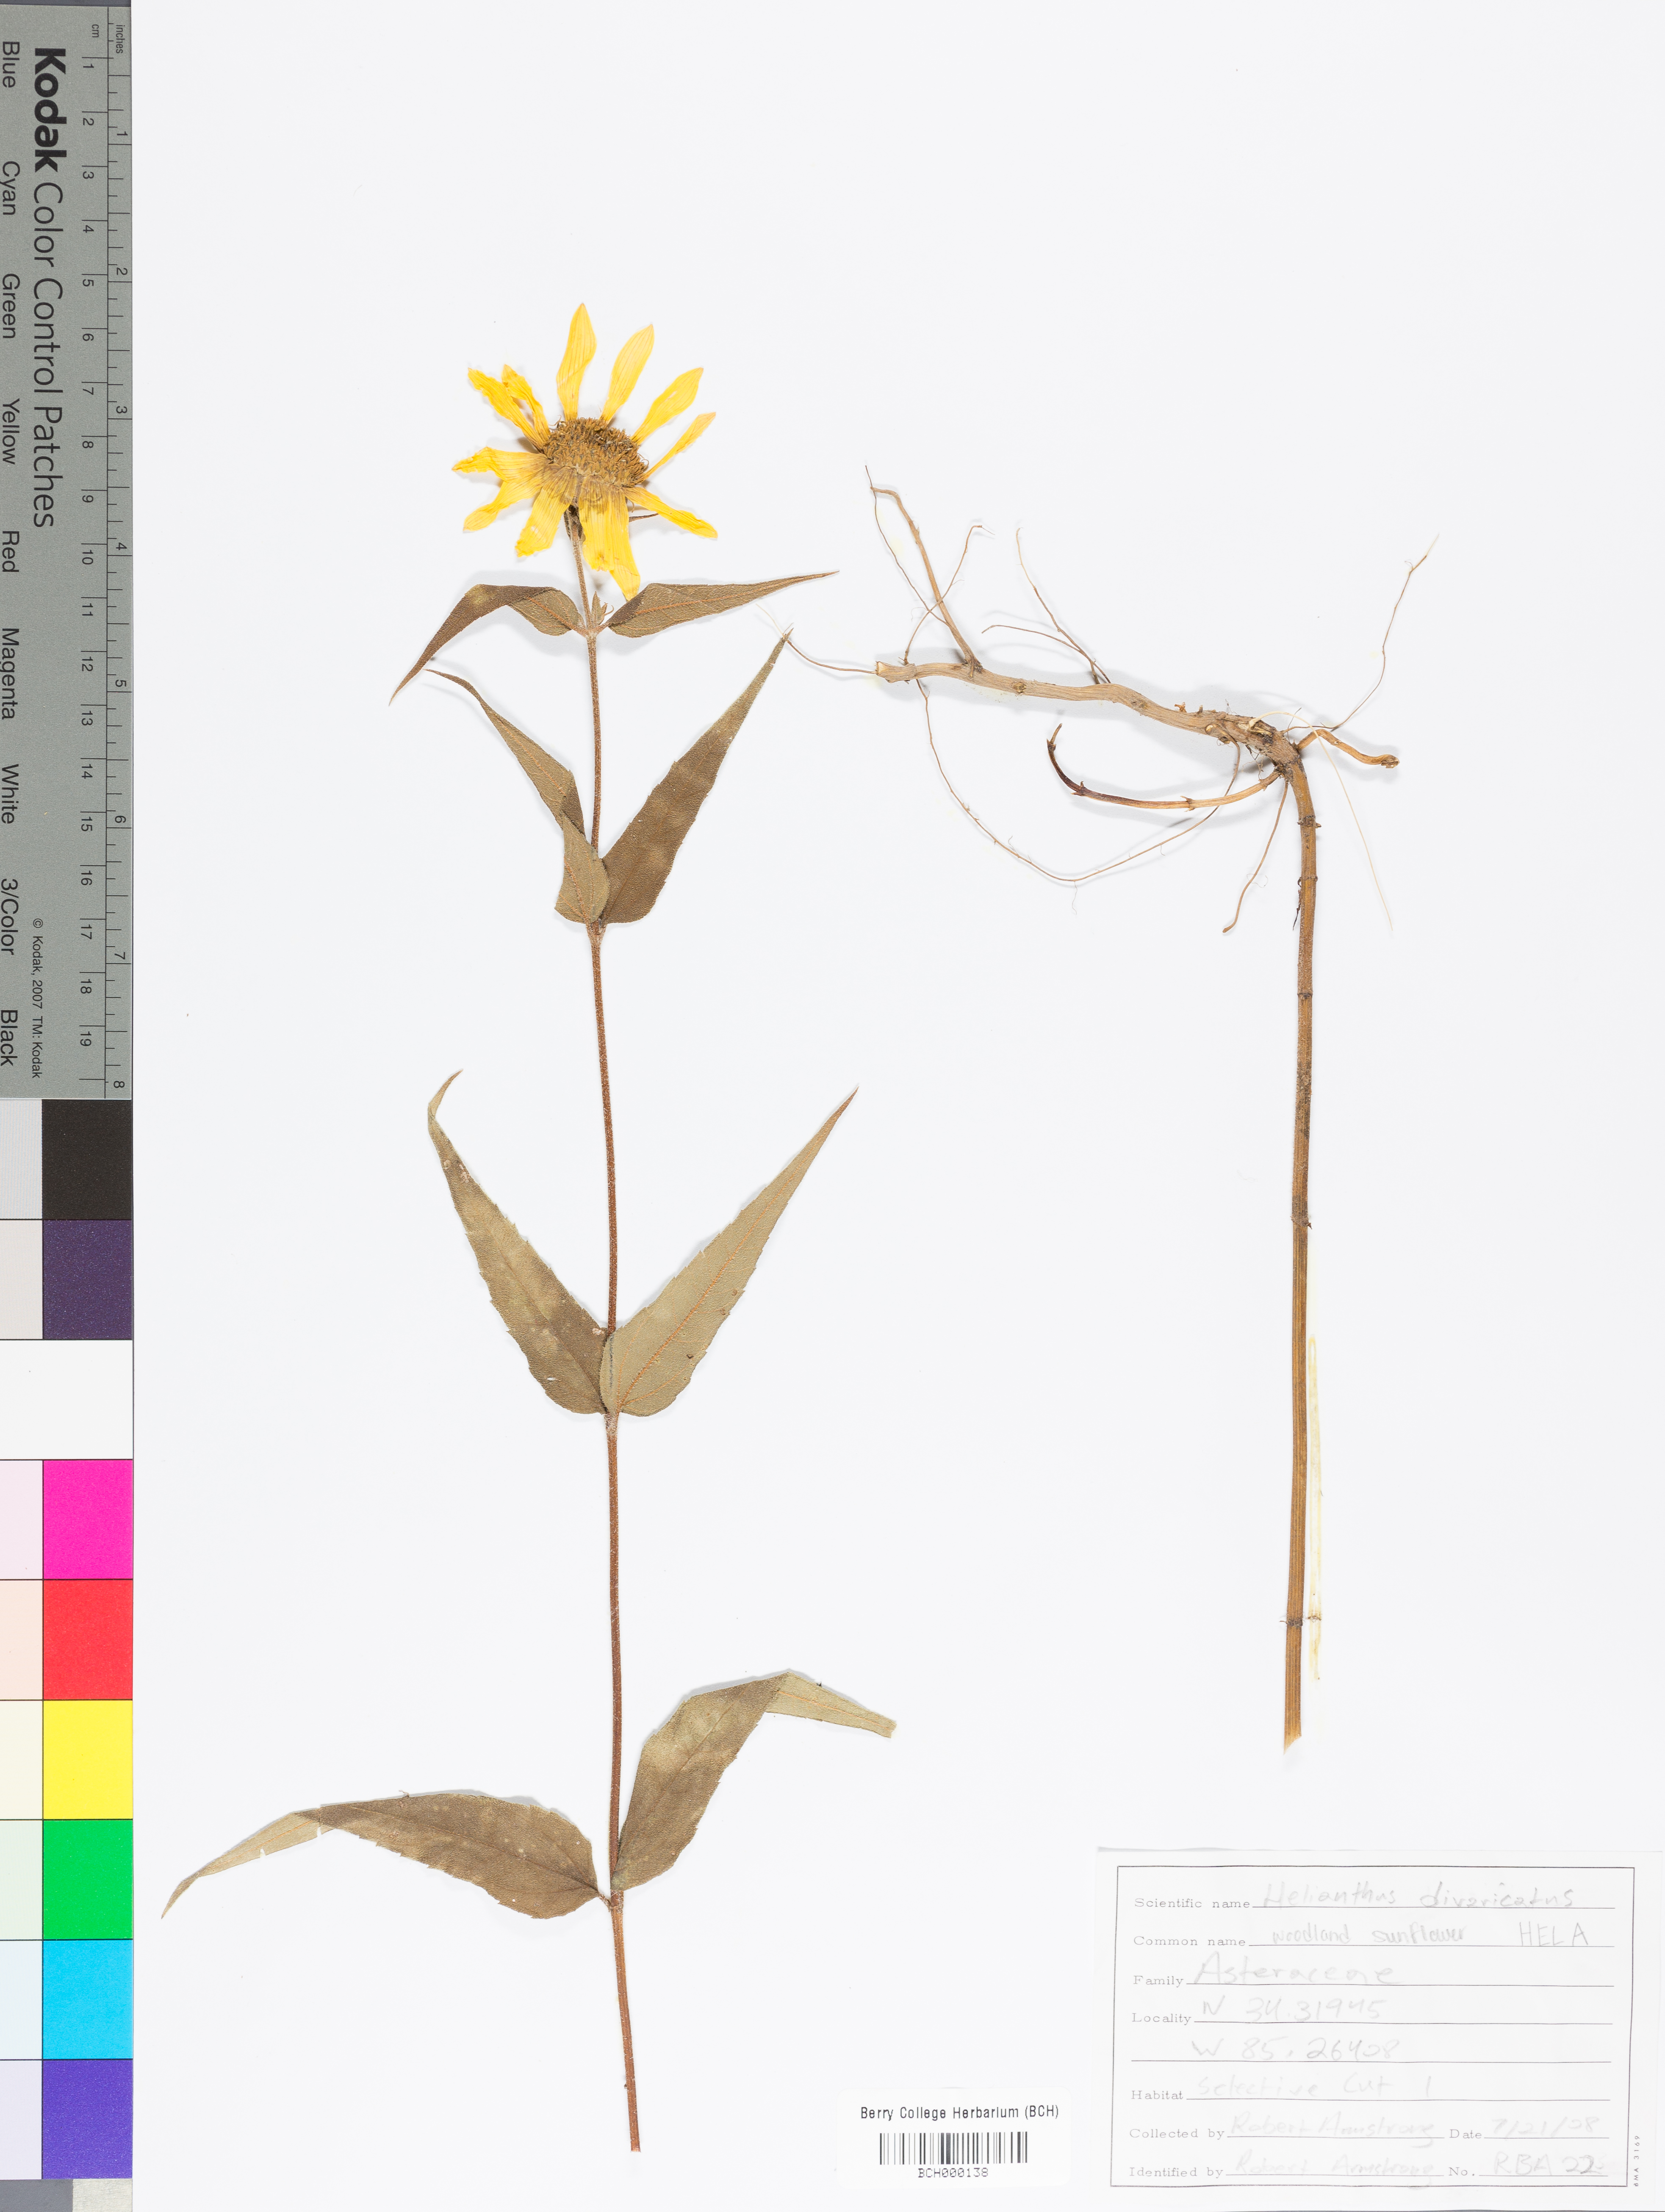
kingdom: Plantae
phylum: Tracheophyta
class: Magnoliopsida
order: Asterales
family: Asteraceae
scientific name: Asteraceae
